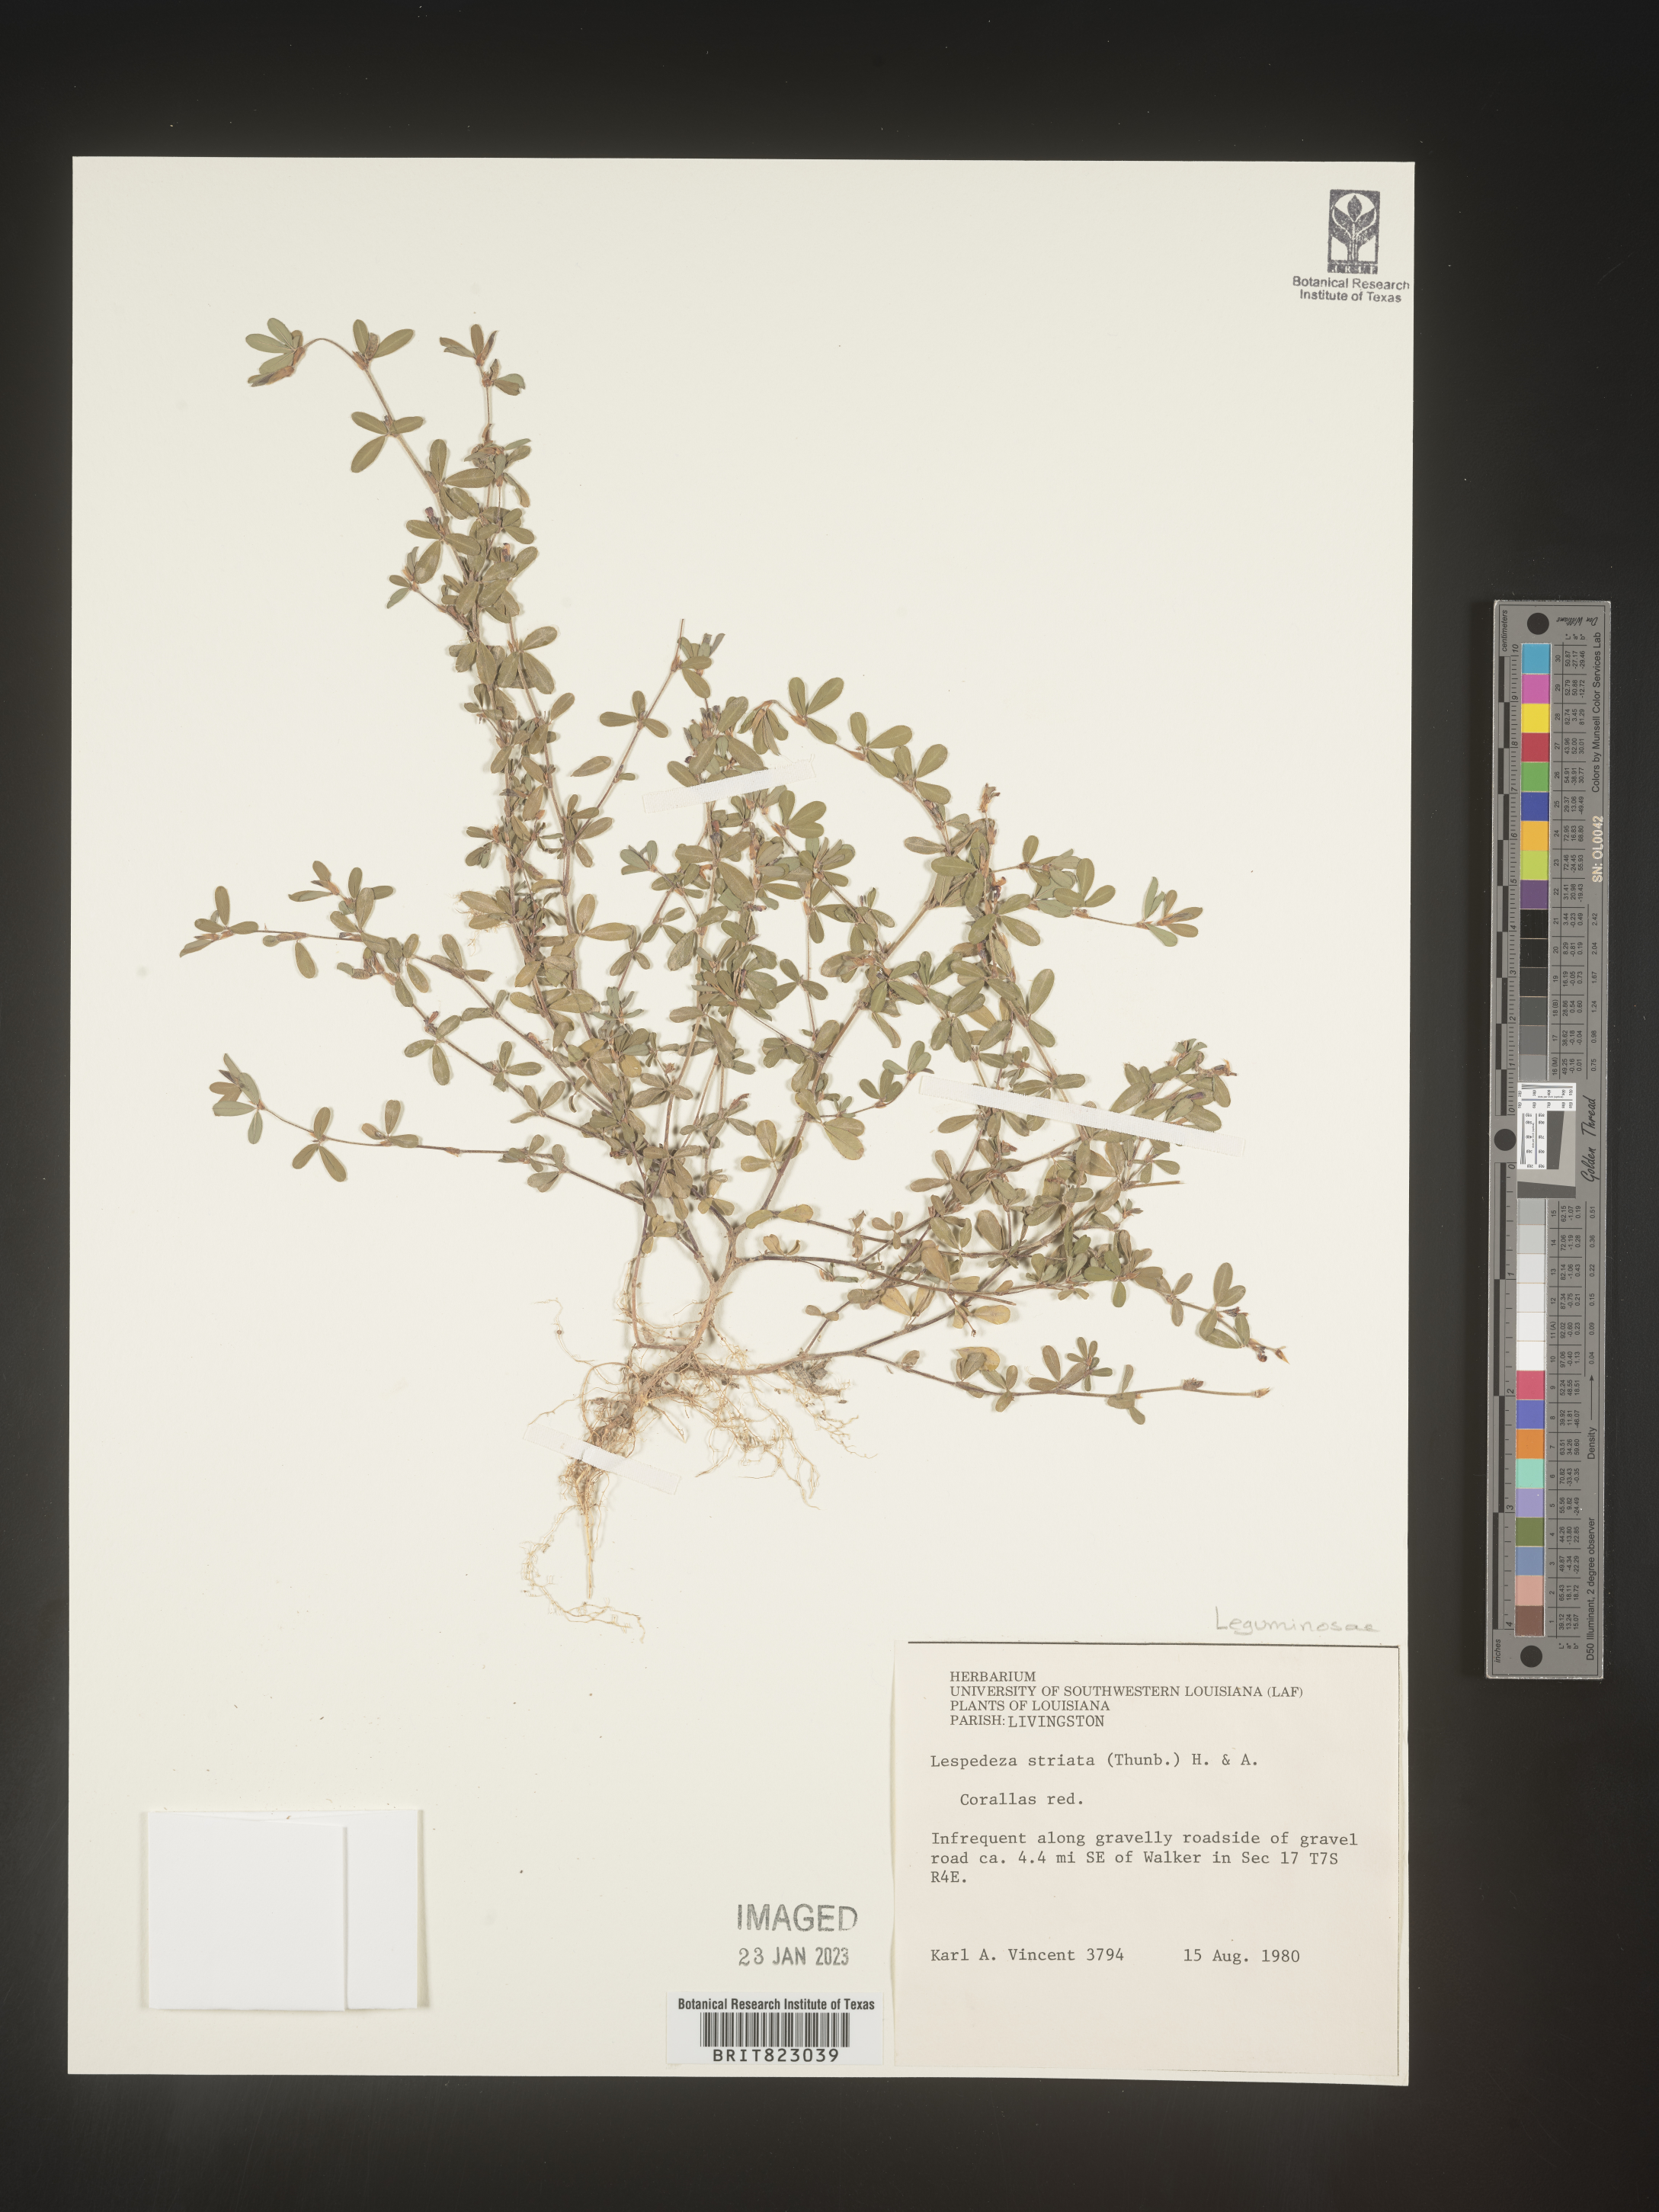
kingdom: Plantae
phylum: Tracheophyta
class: Magnoliopsida
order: Fabales
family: Fabaceae
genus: Kummerowia
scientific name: Kummerowia striata
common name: Japanese clover
